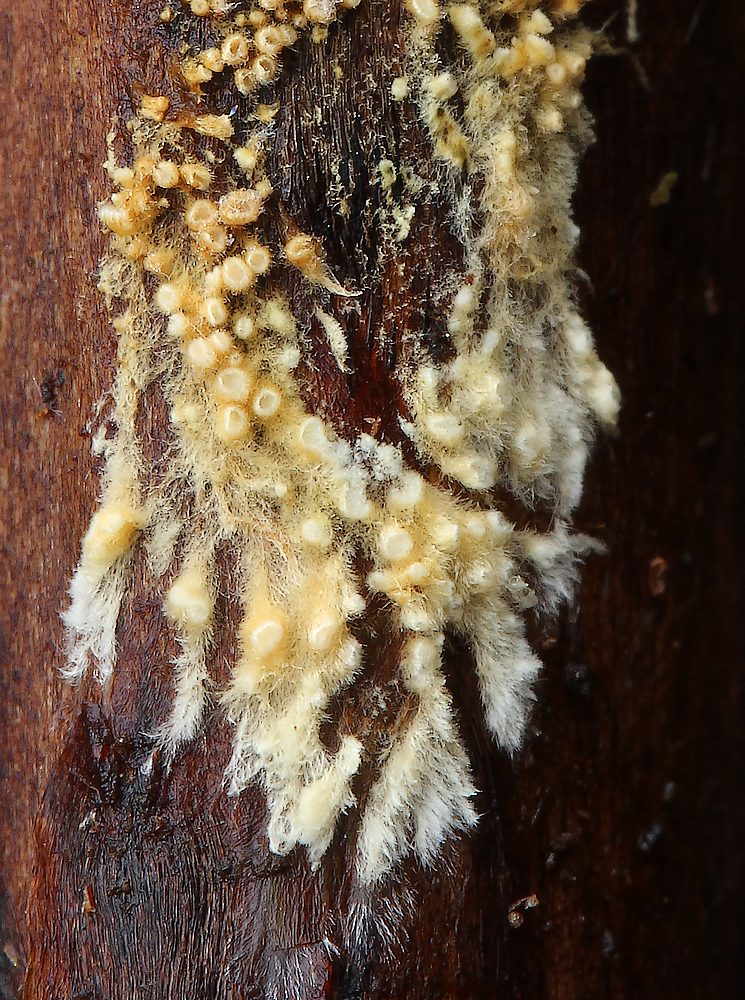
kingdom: Fungi
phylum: Basidiomycota
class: Agaricomycetes
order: Agaricales
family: Niaceae
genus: Woldmaria
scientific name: Woldmaria filicina
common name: bregnerør
